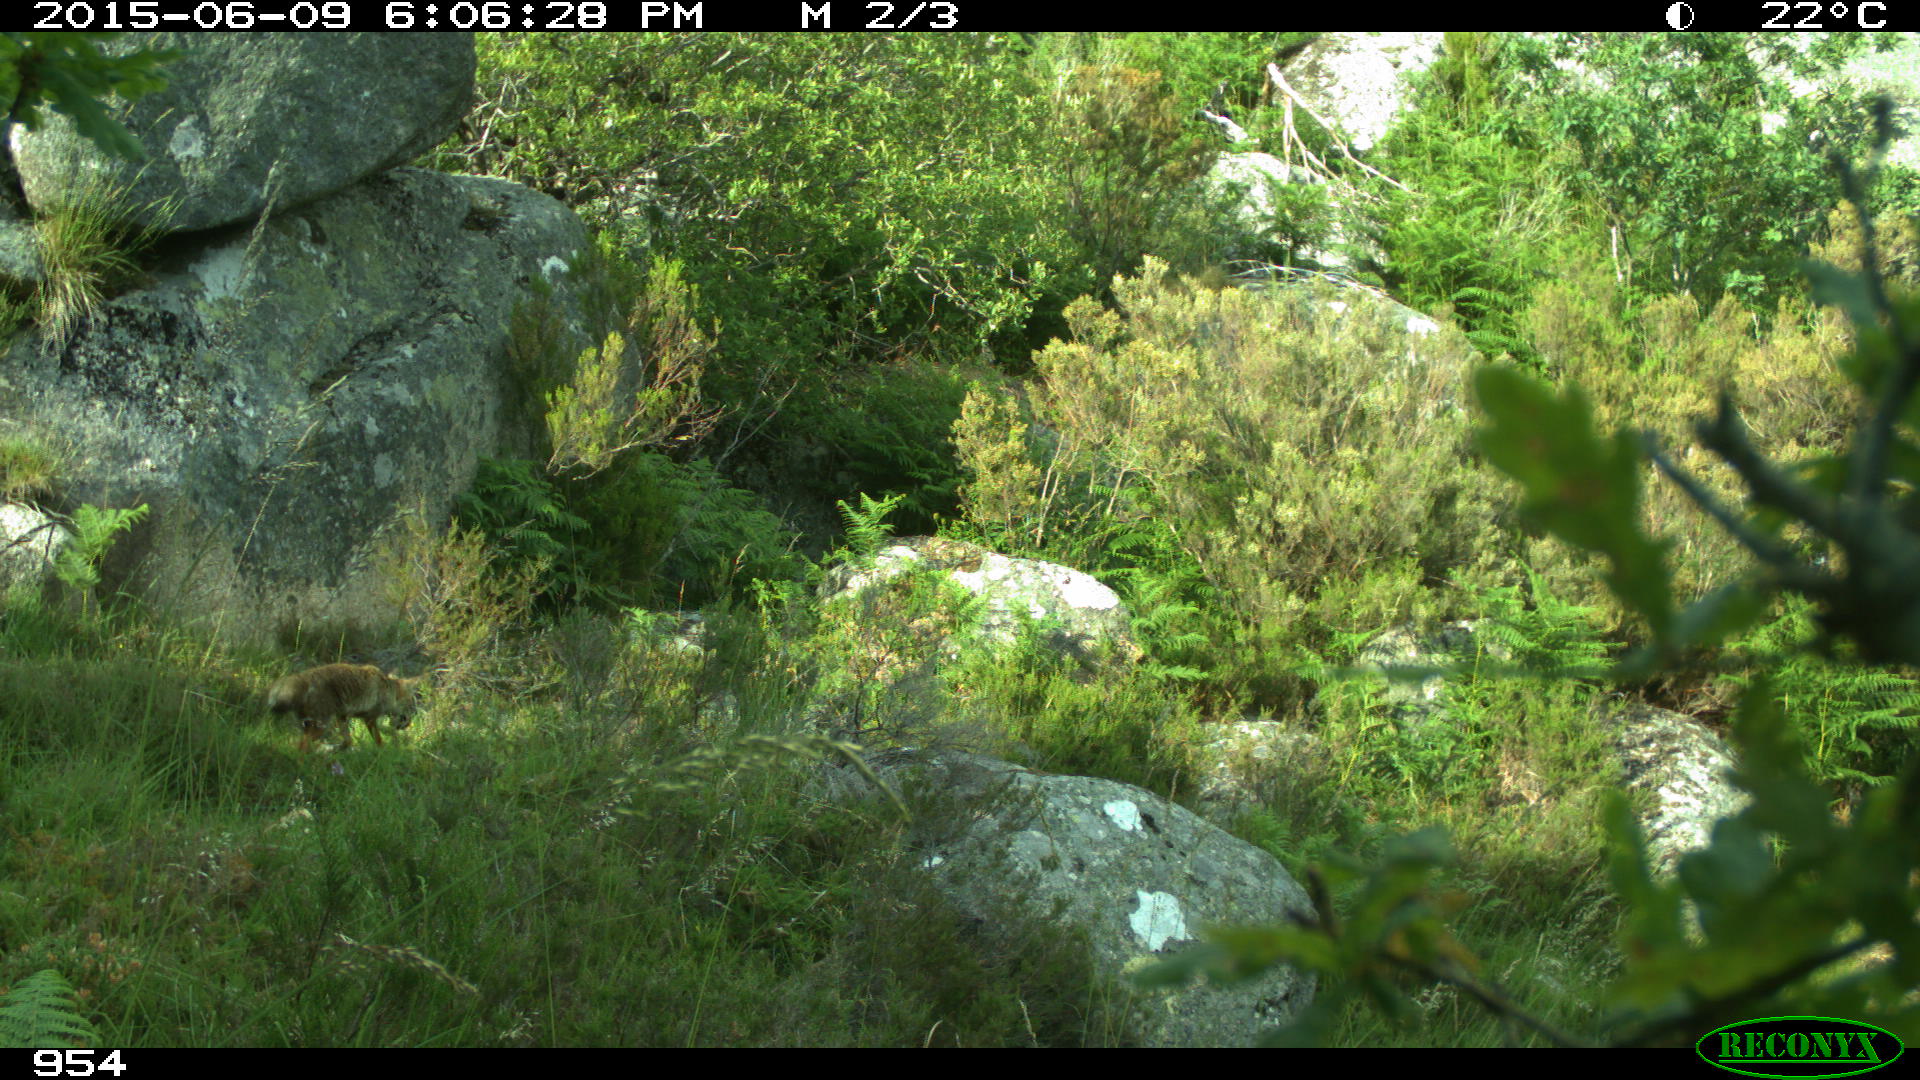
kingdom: Animalia
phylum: Chordata
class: Mammalia
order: Carnivora
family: Canidae
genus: Vulpes
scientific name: Vulpes vulpes
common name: Red fox
